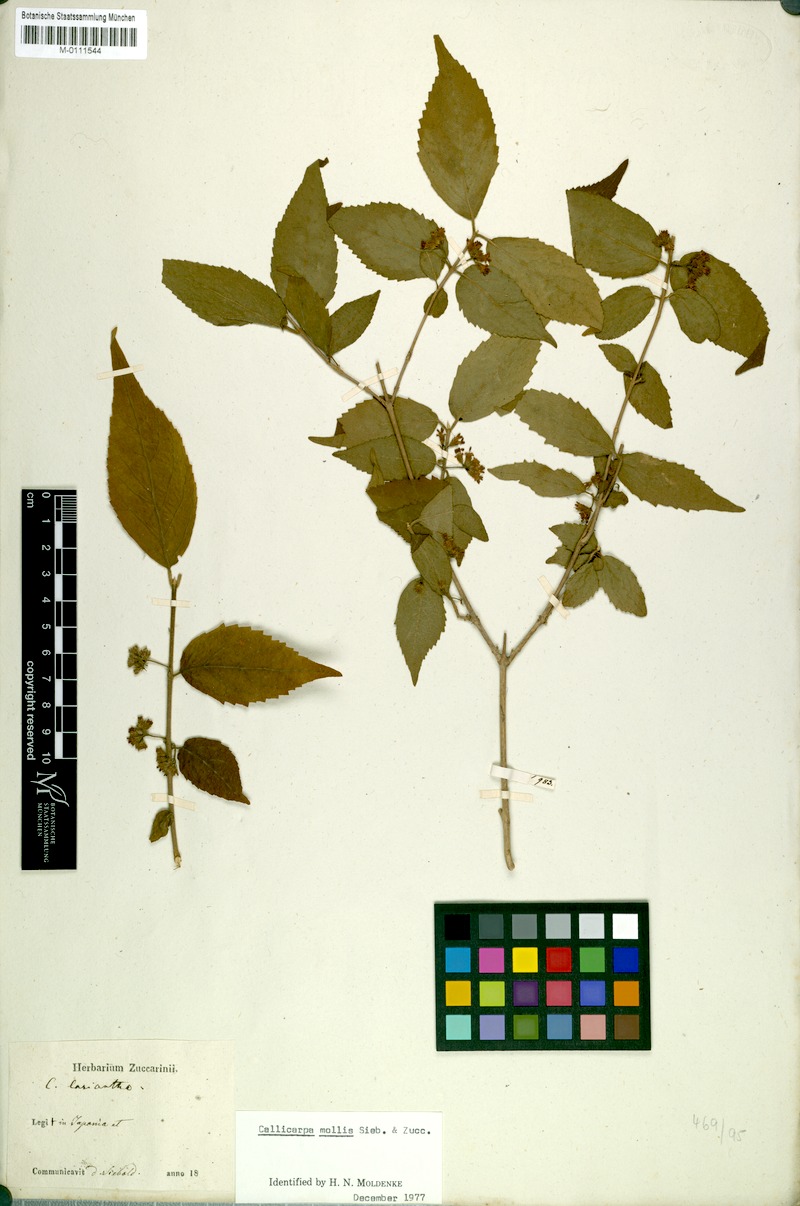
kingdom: Plantae
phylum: Tracheophyta
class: Magnoliopsida
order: Lamiales
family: Lamiaceae
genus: Callicarpa
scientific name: Callicarpa mollis
